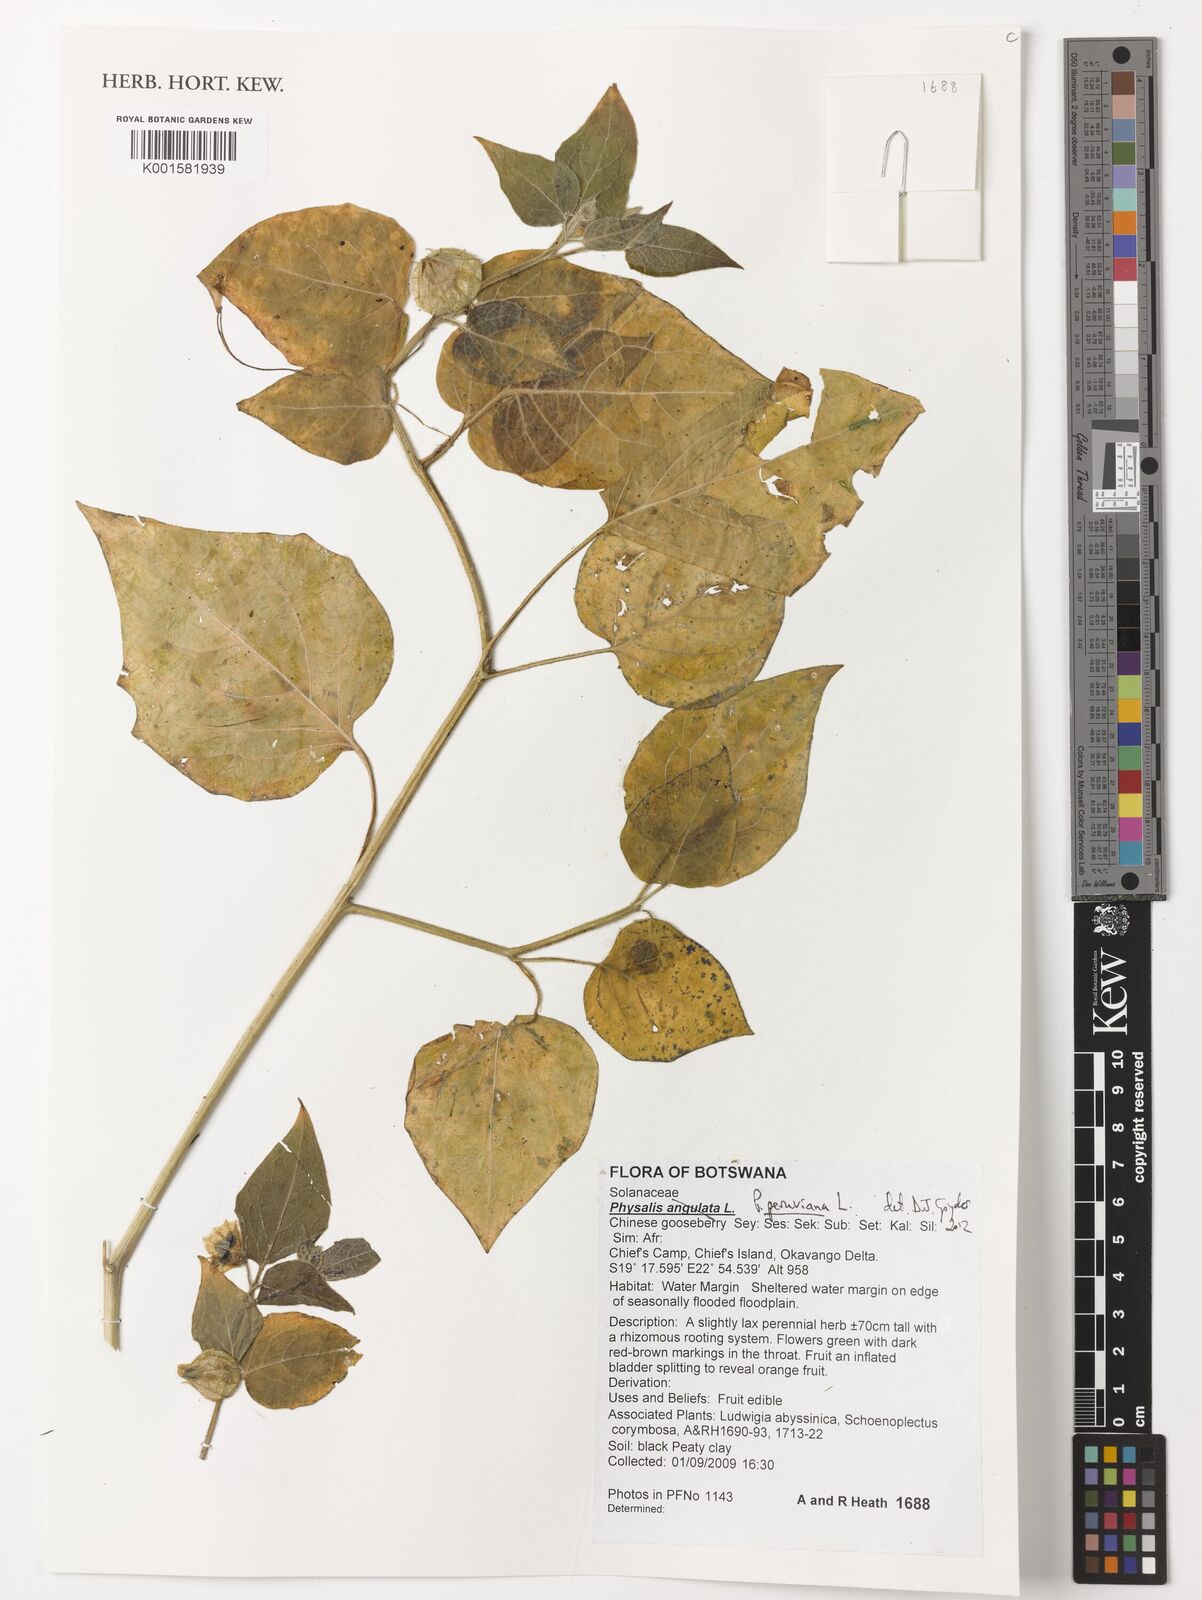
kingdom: Plantae
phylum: Tracheophyta
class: Magnoliopsida
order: Solanales
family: Solanaceae
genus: Nicandra
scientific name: Nicandra physalodes
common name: Apple-of-peru
